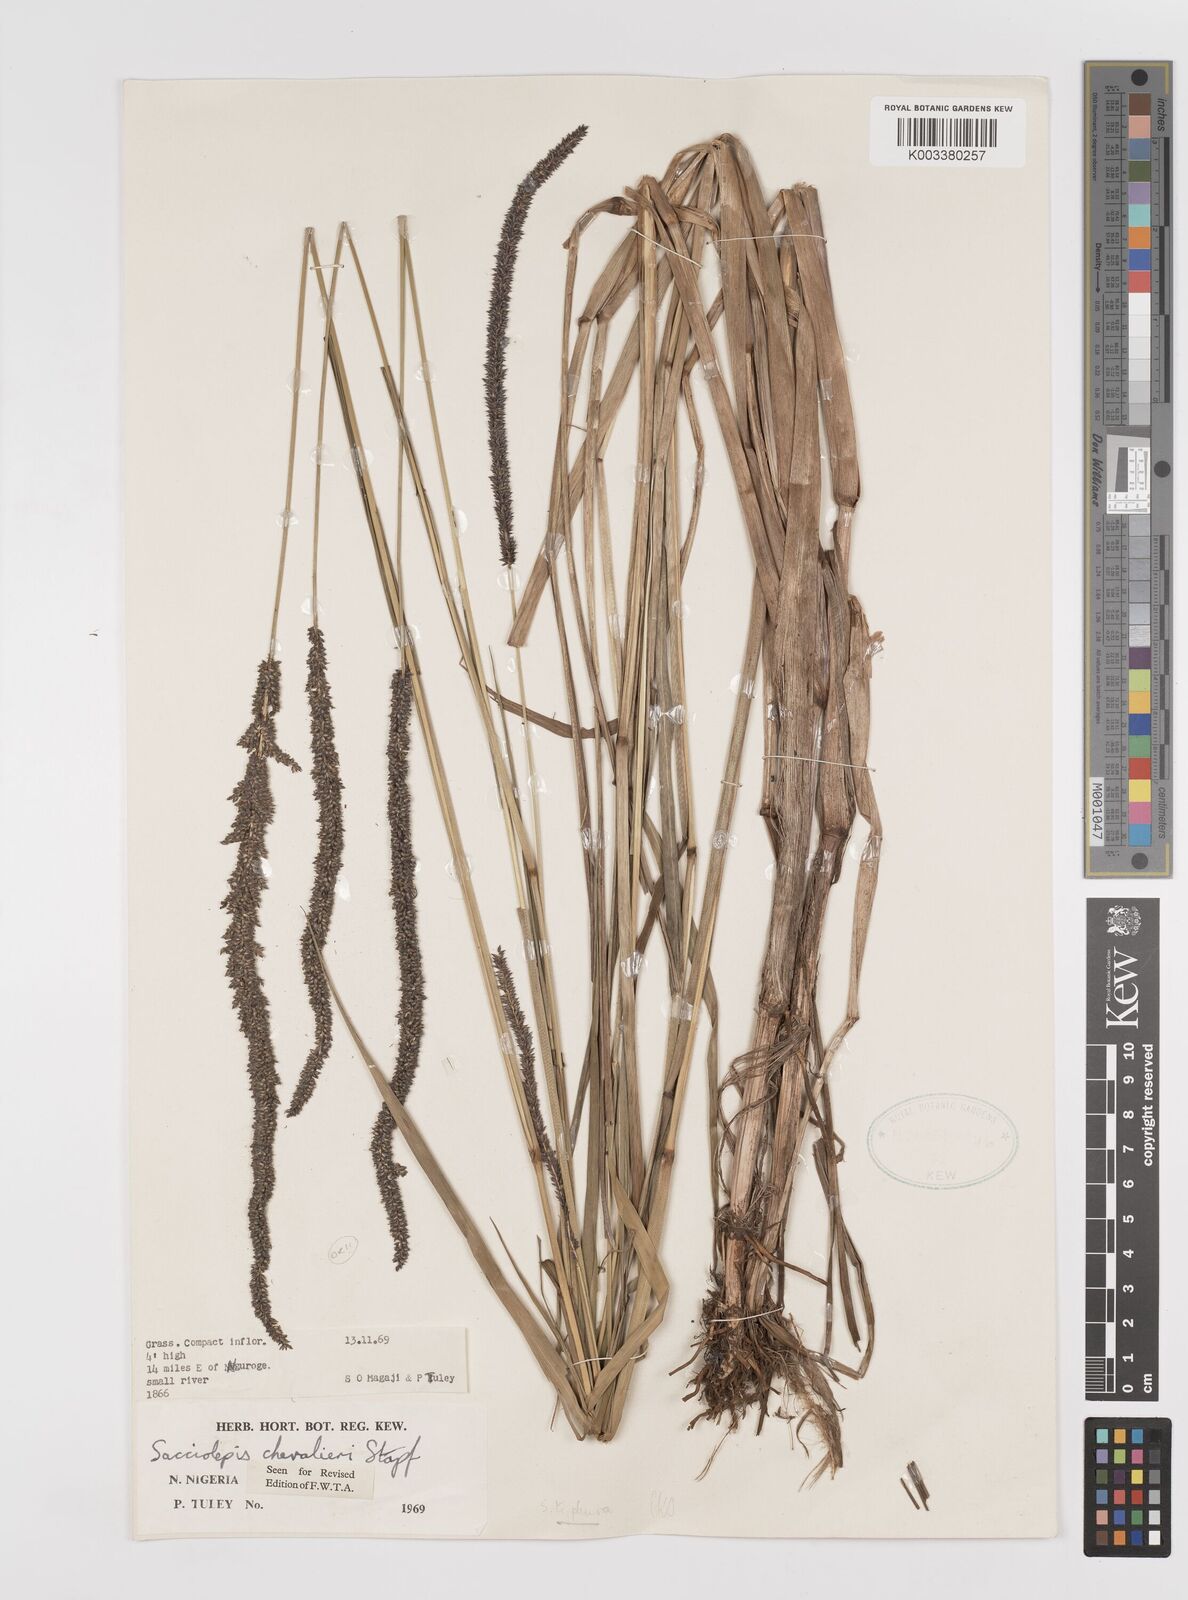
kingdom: Plantae
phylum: Tracheophyta
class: Liliopsida
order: Poales
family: Poaceae
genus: Sacciolepis
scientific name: Sacciolepis chevalieri
